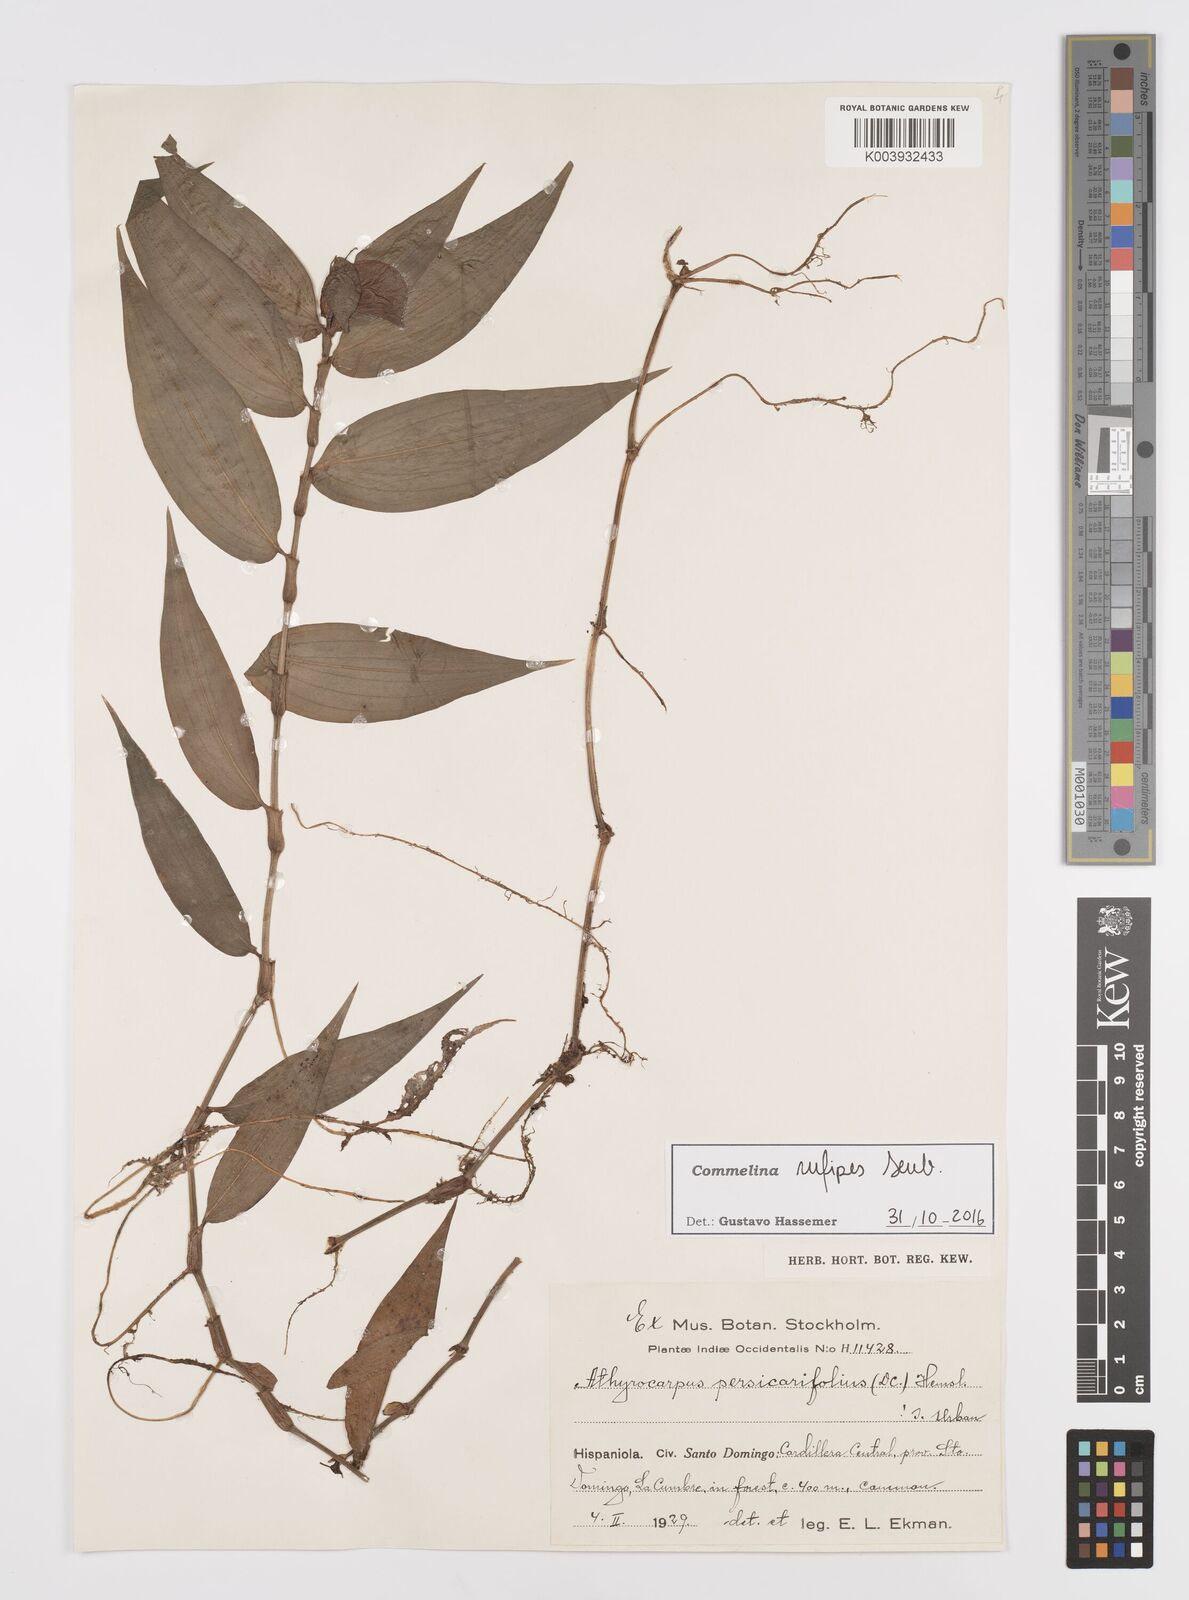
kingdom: Plantae
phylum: Tracheophyta
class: Liliopsida
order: Commelinales
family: Commelinaceae
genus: Commelina
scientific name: Commelina rufipes
